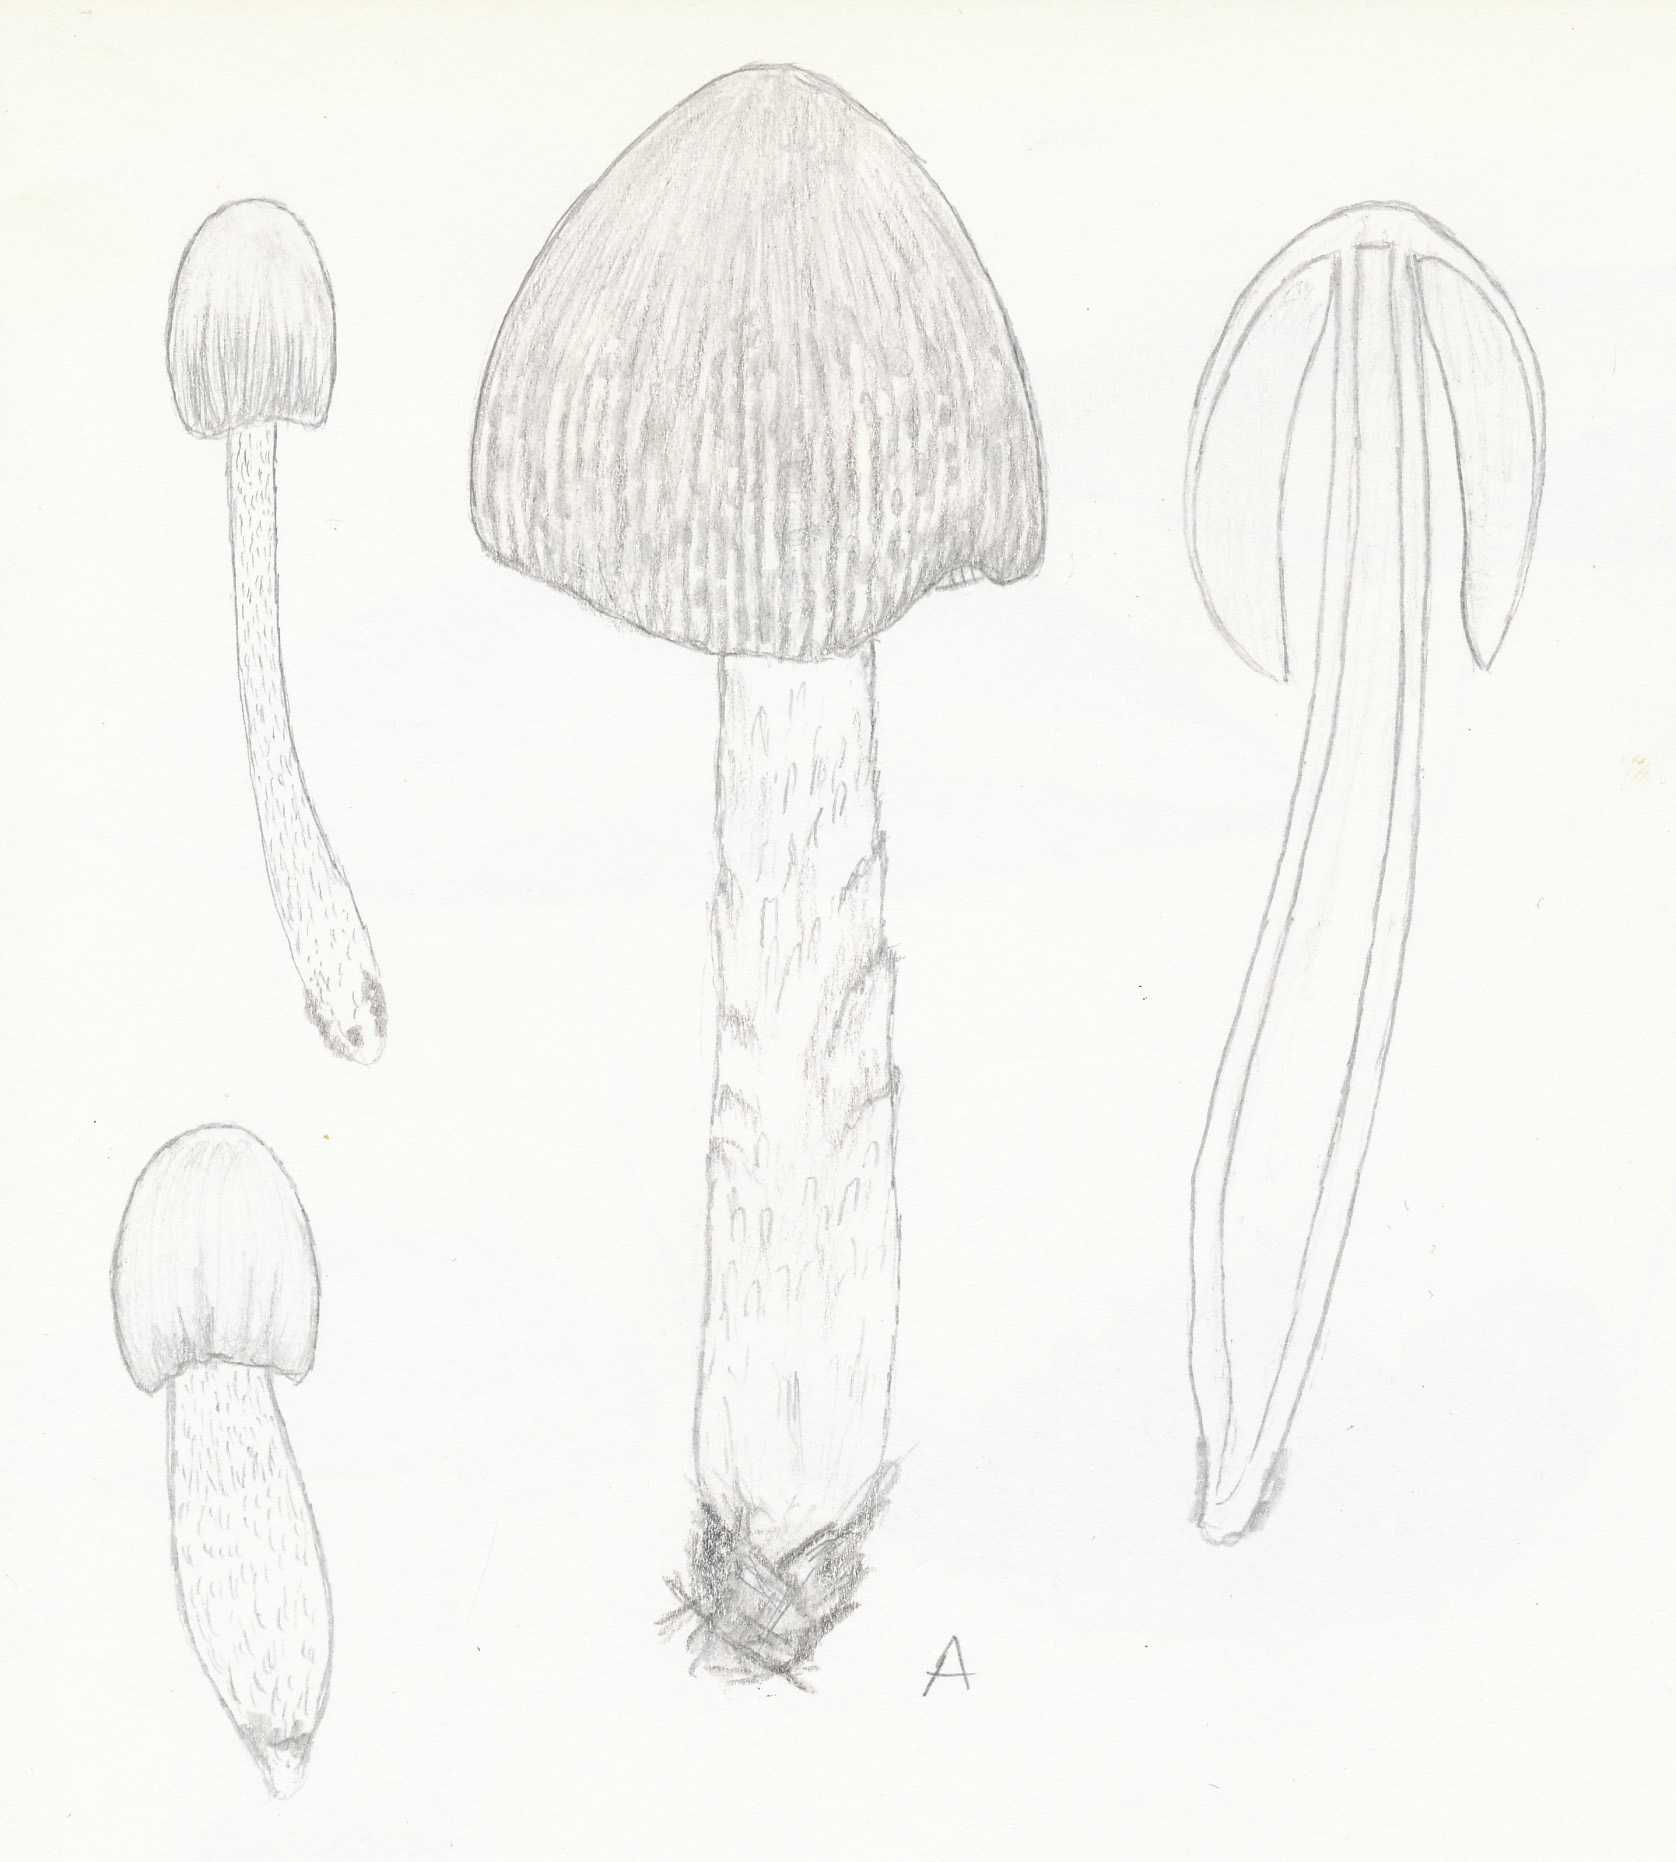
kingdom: Fungi
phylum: Basidiomycota
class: Agaricomycetes
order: Agaricales
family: Bolbitiaceae
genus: Bolbitius
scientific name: Bolbitius titubans
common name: almindelig gulhat
